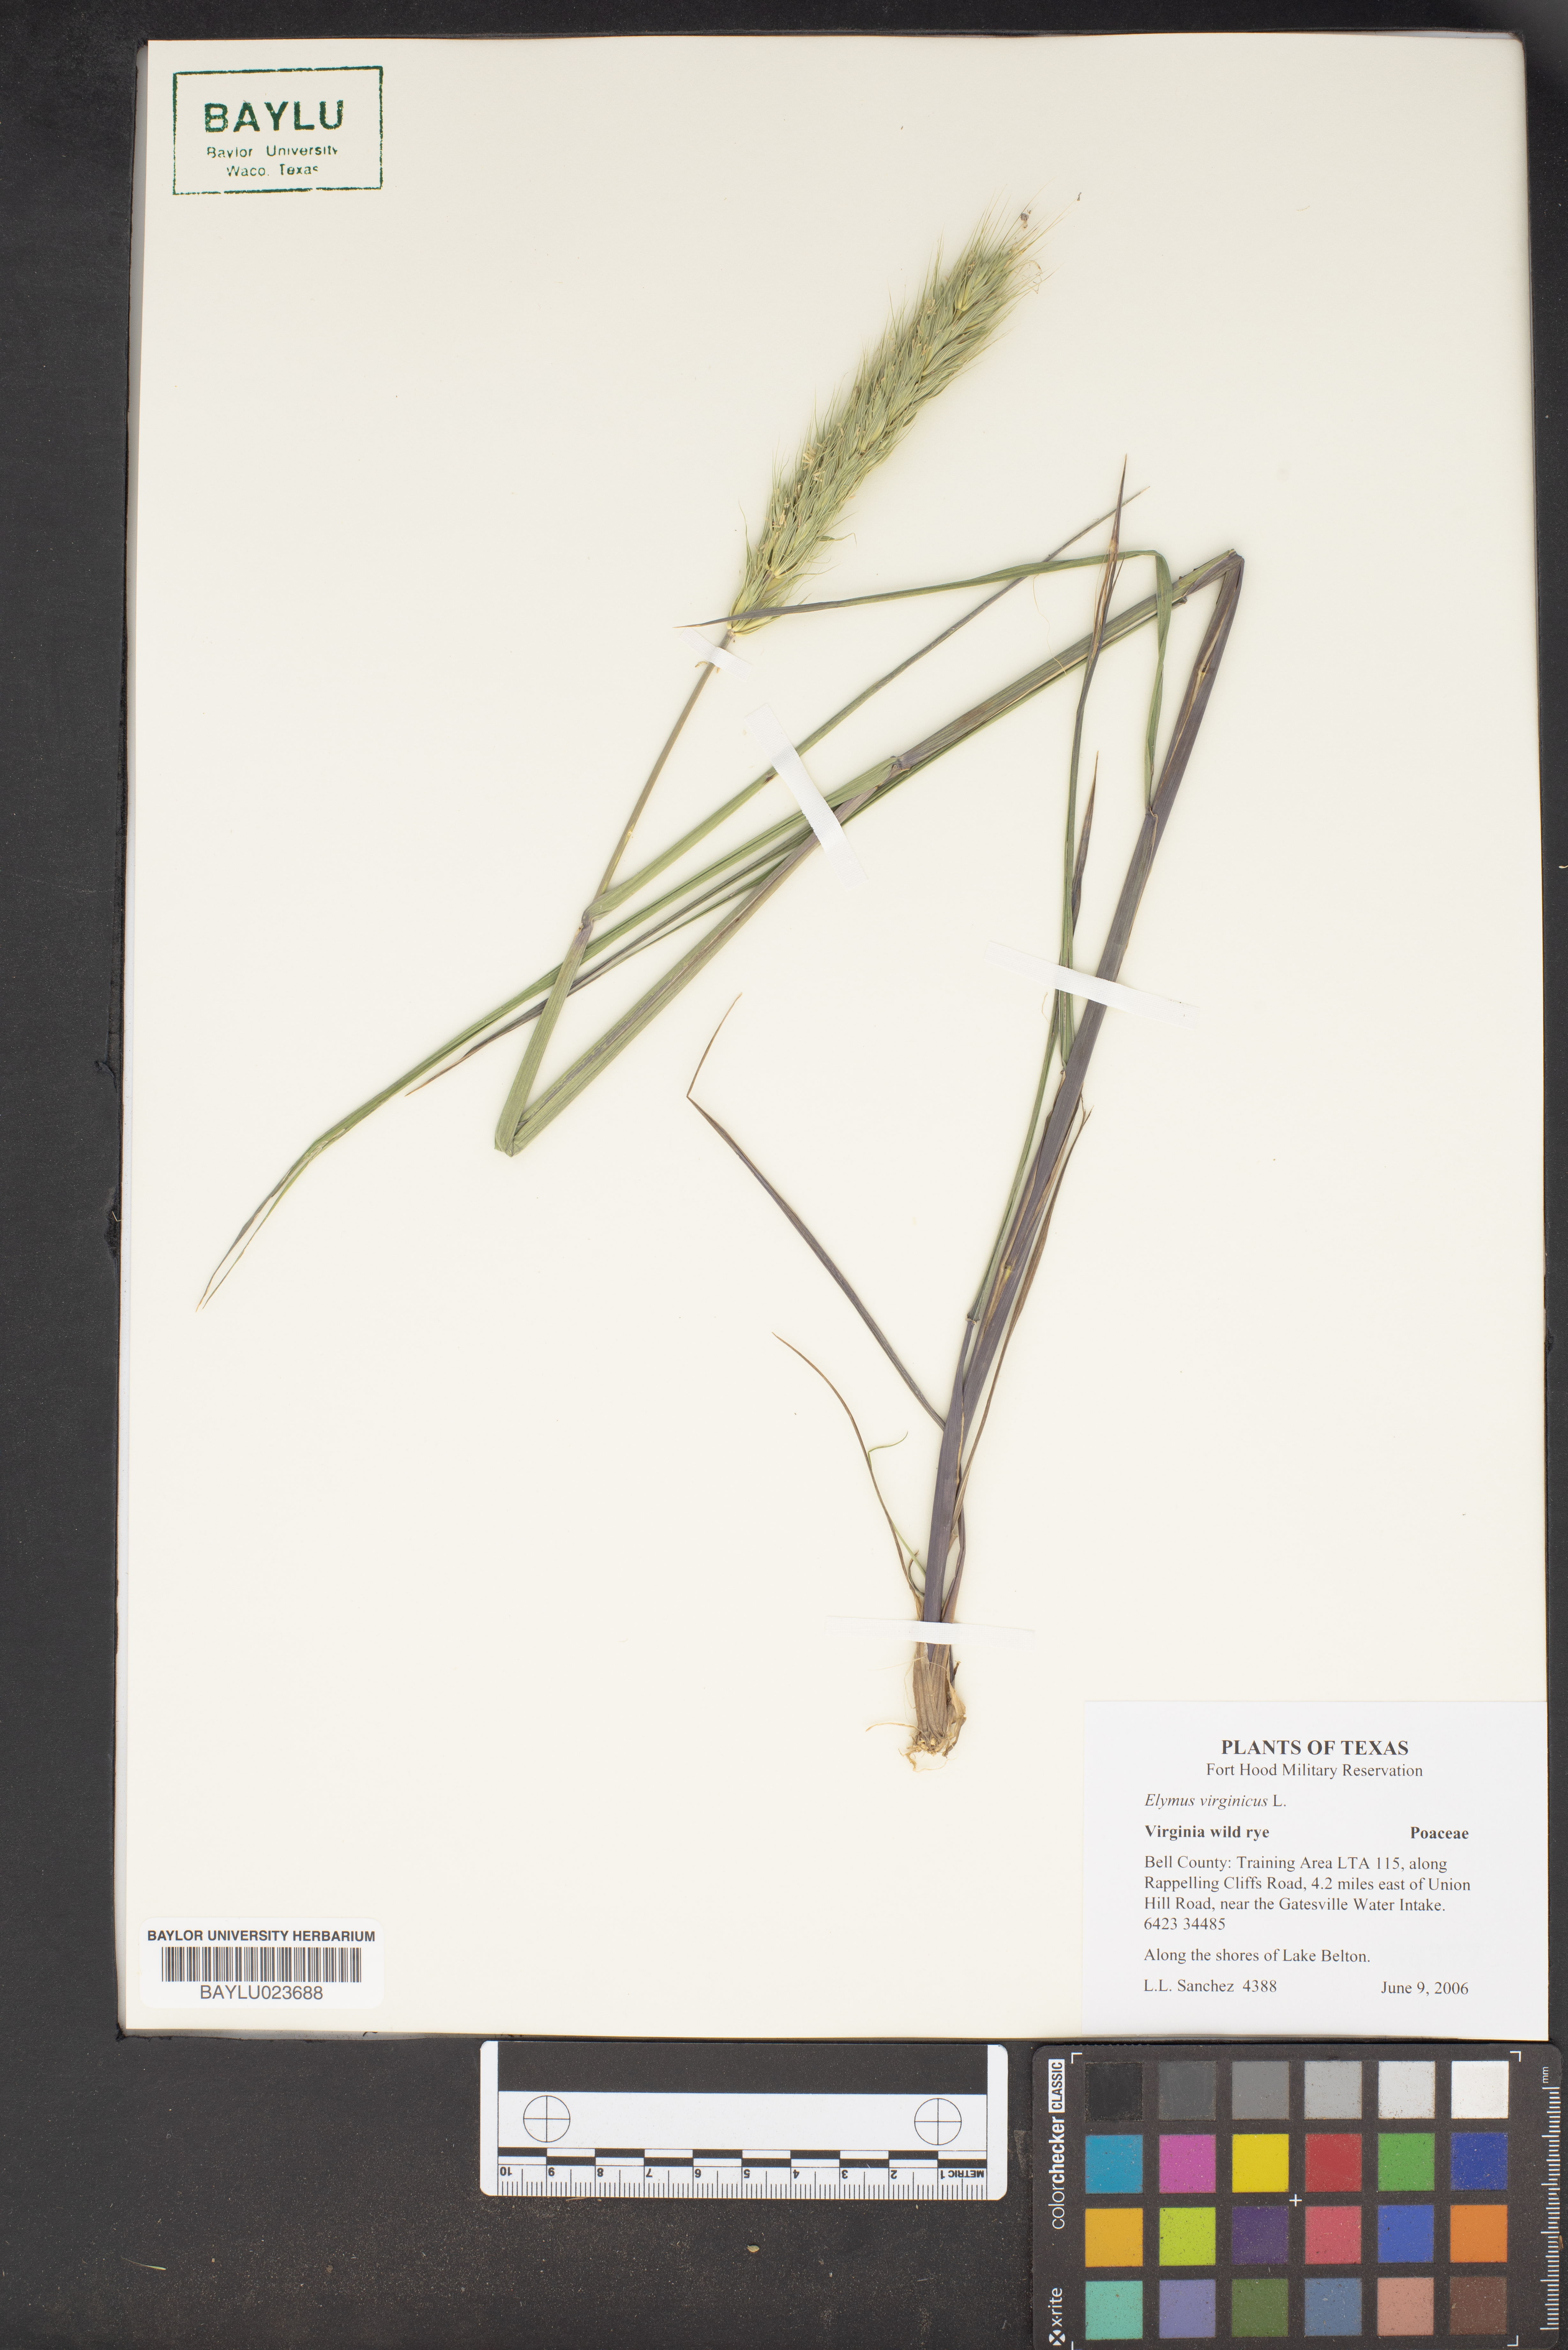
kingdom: Plantae
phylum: Tracheophyta
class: Liliopsida
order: Poales
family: Poaceae
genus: Elymus
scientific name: Elymus virginicus
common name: Common eastern wildrye
